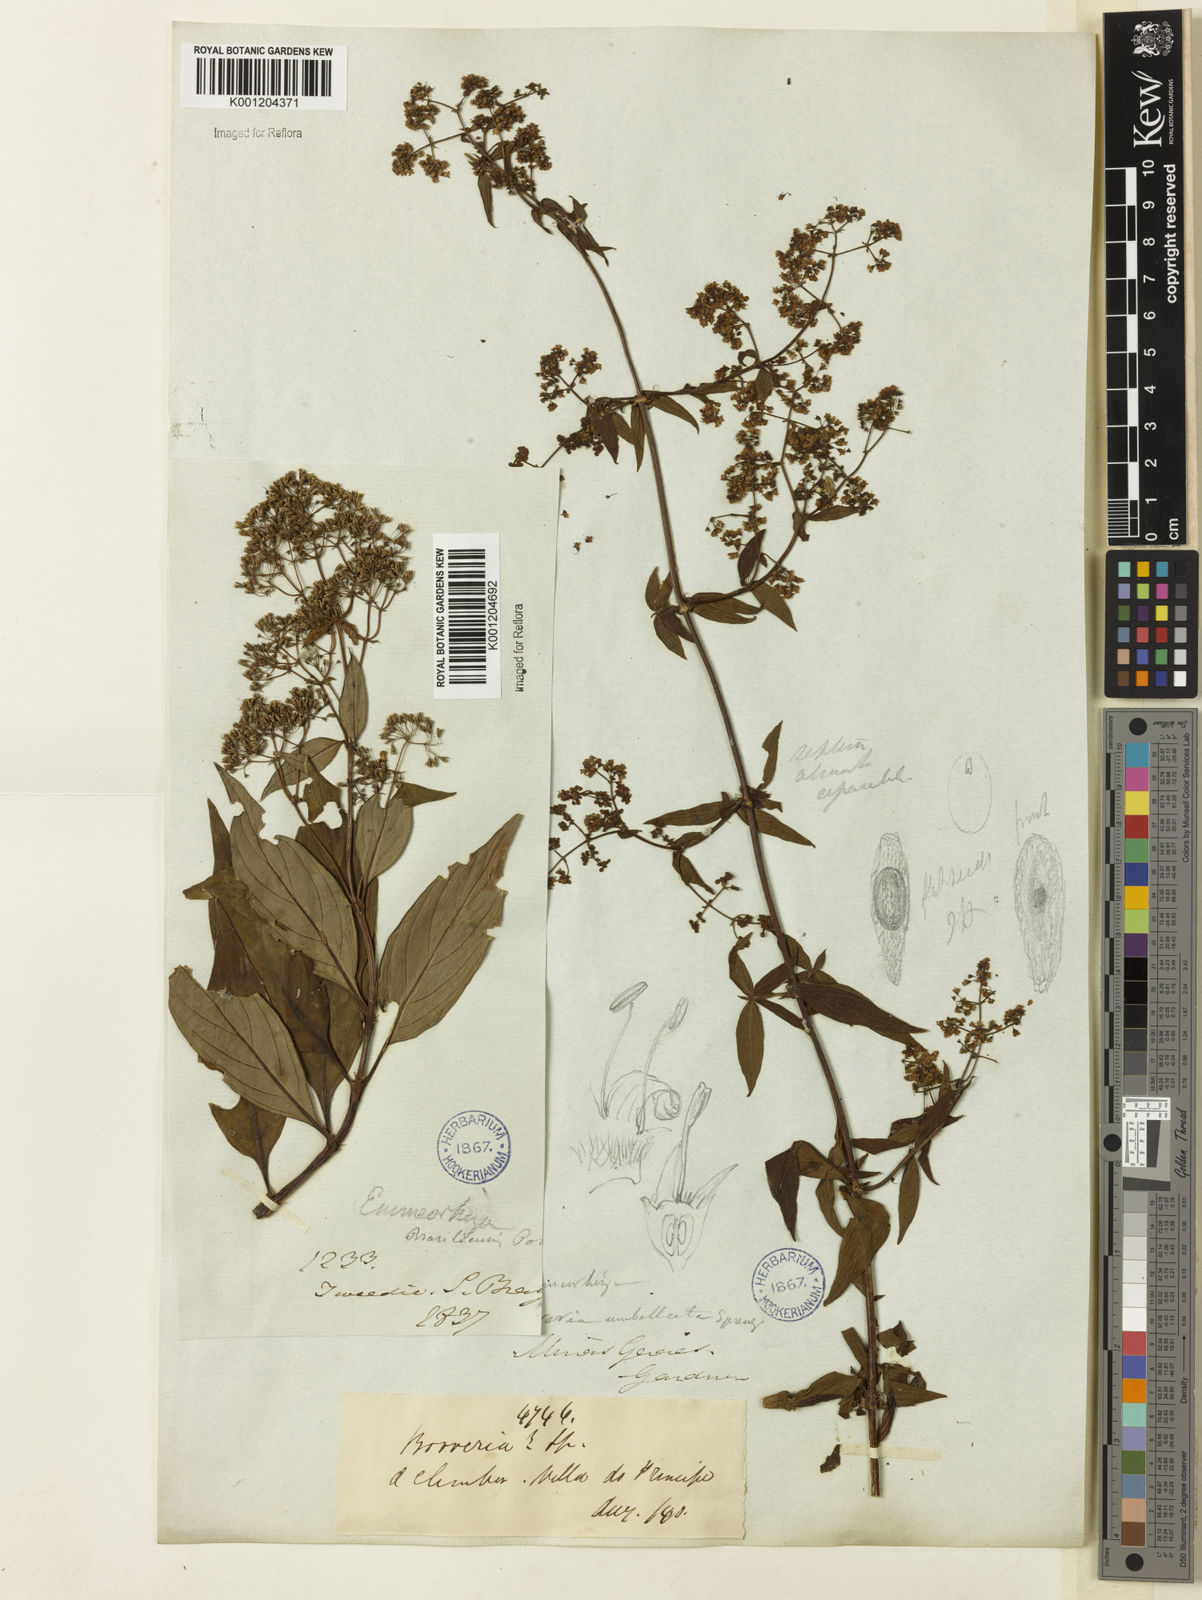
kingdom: Plantae
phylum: Tracheophyta
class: Magnoliopsida
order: Gentianales
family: Rubiaceae
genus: Emmeorhiza
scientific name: Emmeorhiza umbellata
